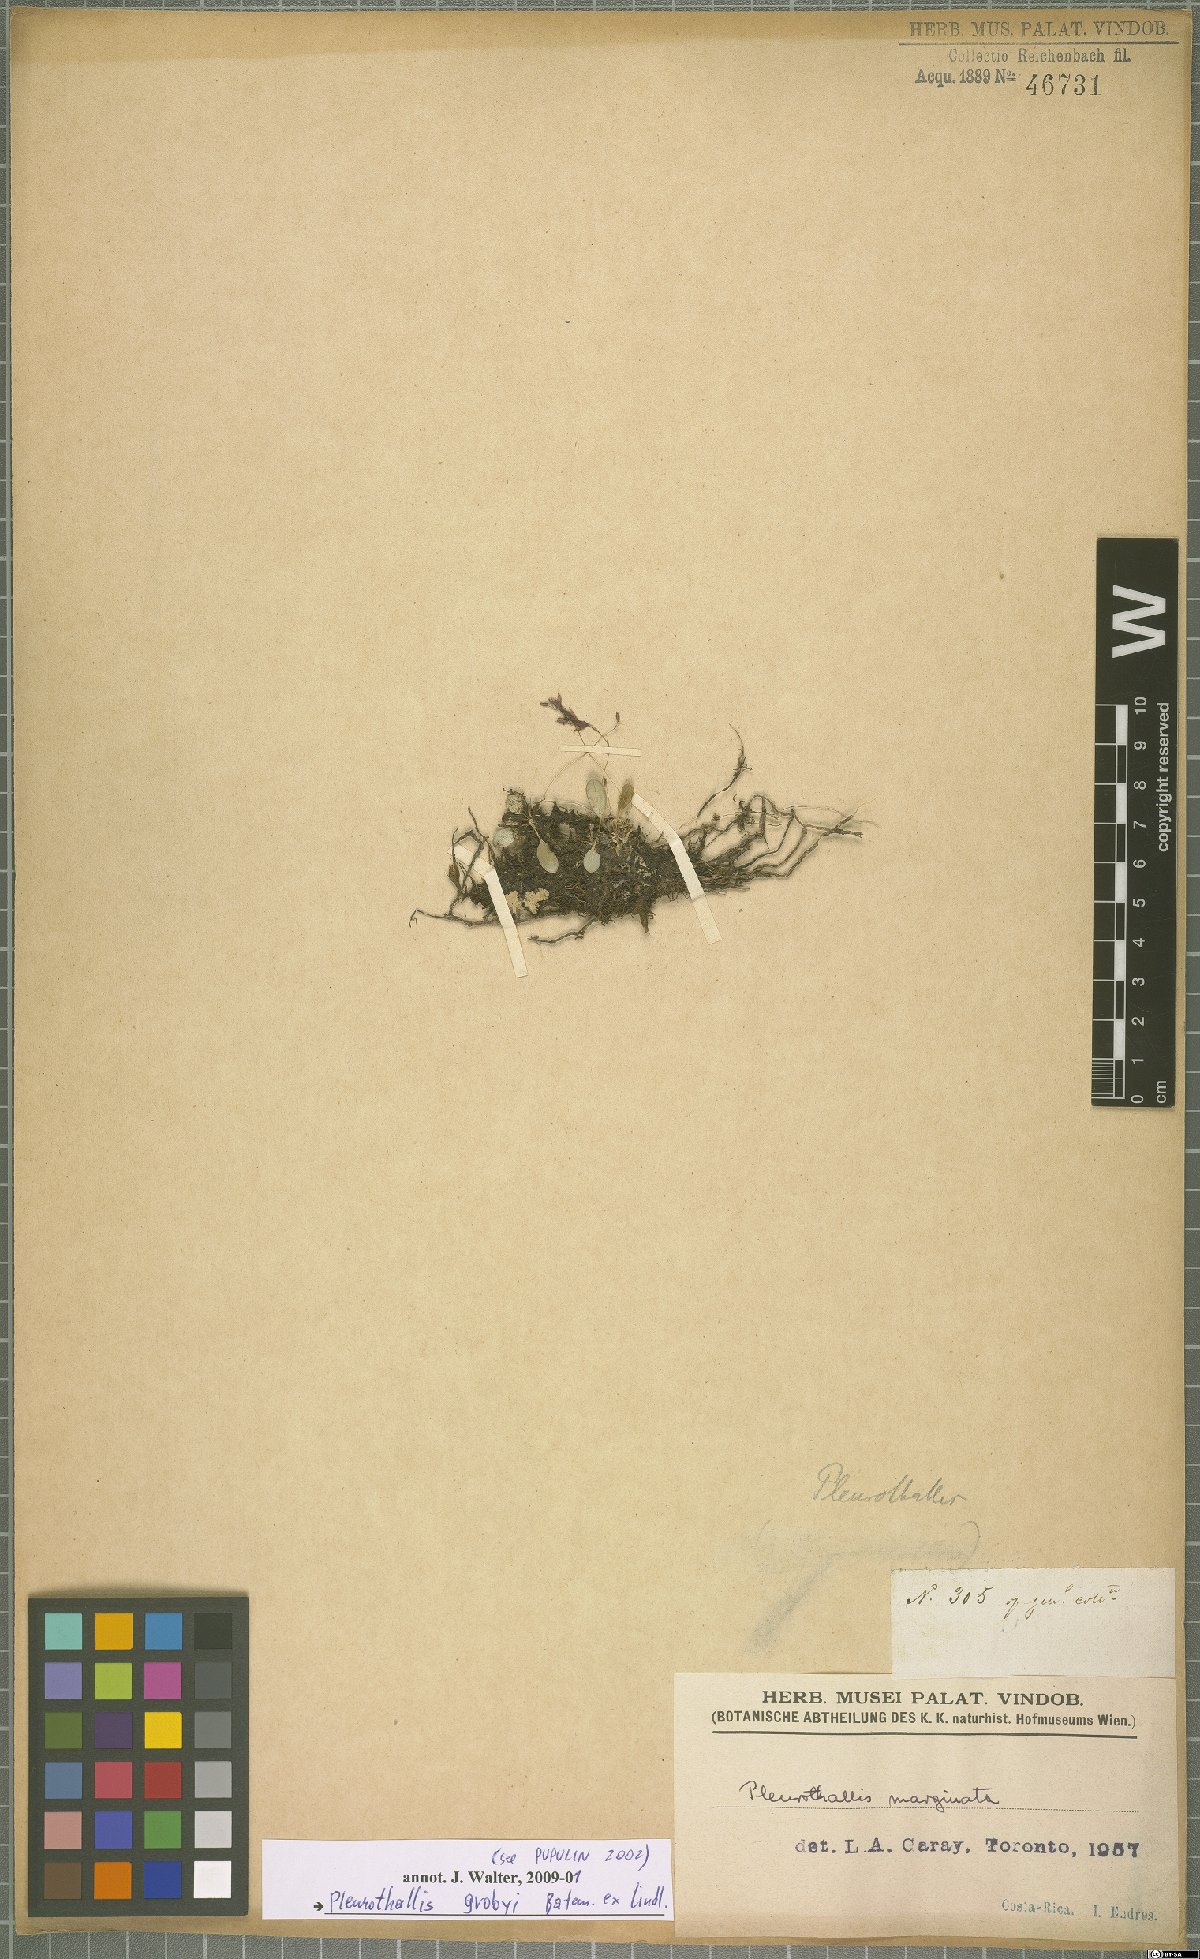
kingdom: Plantae
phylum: Tracheophyta
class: Liliopsida
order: Asparagales
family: Orchidaceae
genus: Specklinia
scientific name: Specklinia grobyi
